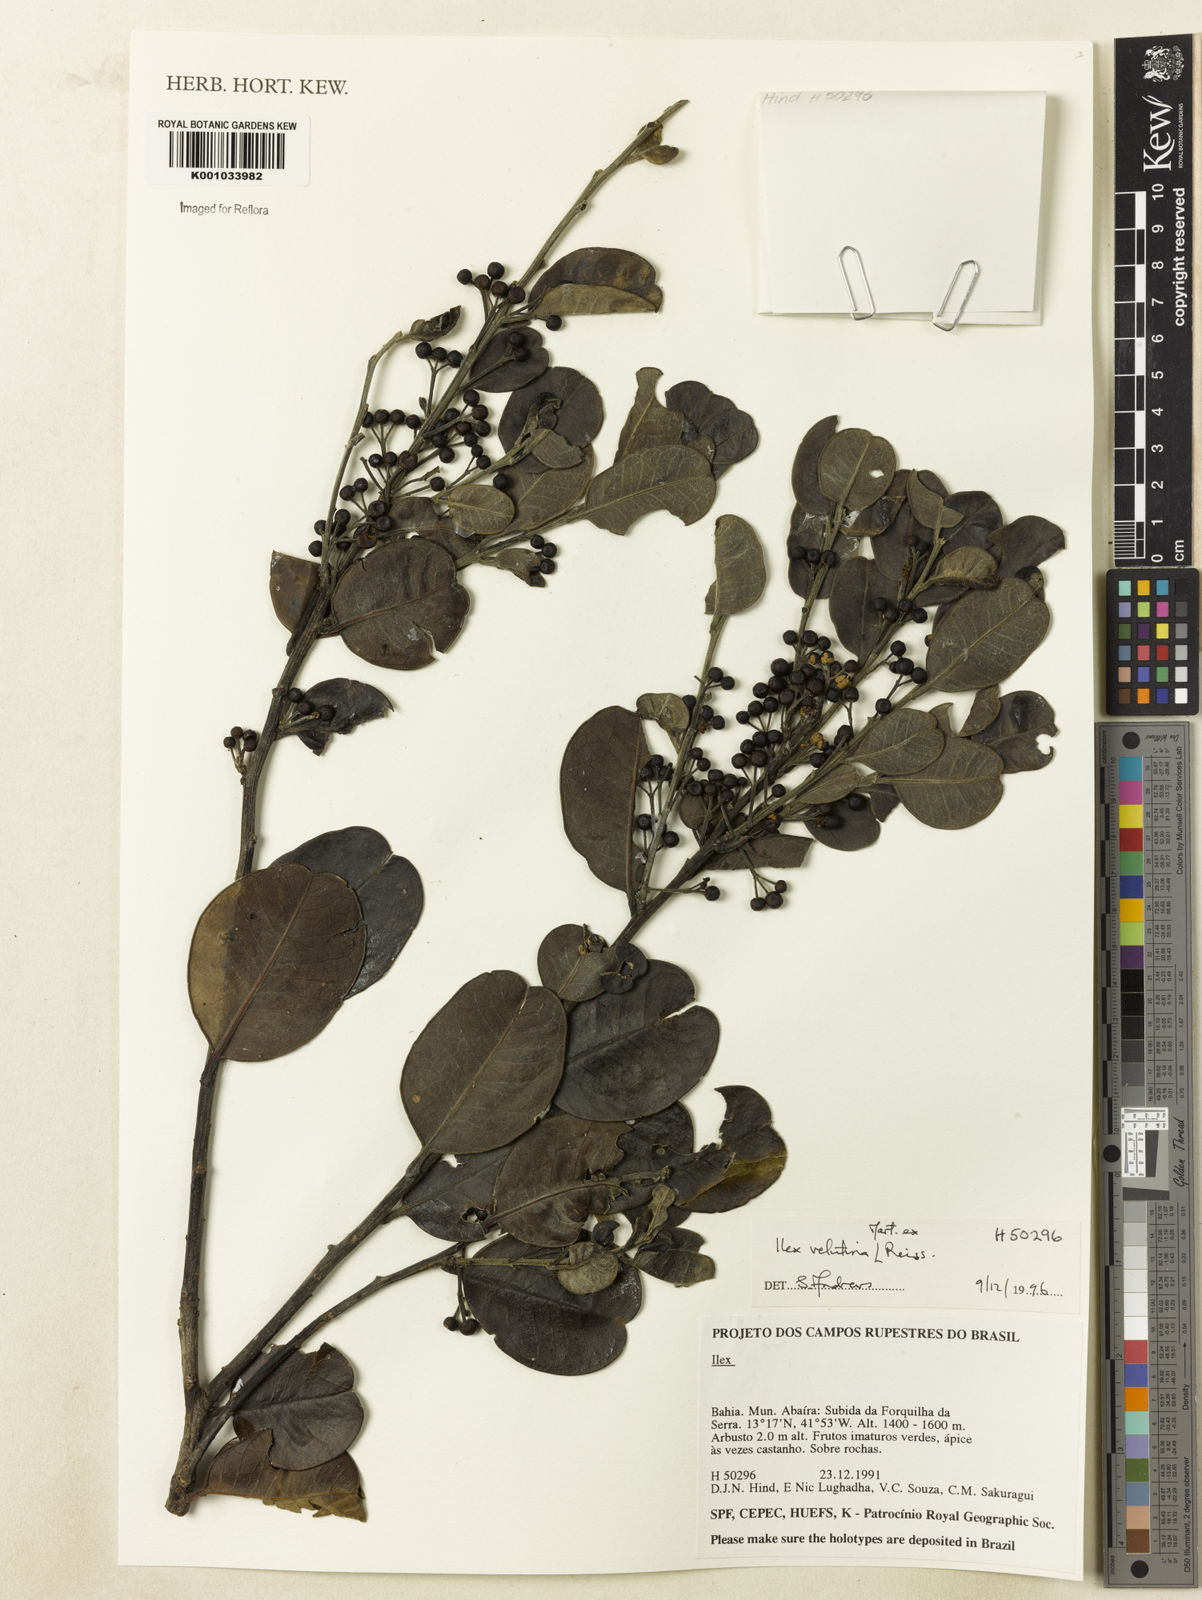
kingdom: Plantae
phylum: Tracheophyta
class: Magnoliopsida
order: Aquifoliales
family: Aquifoliaceae
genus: Ilex
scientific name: Ilex velutina
